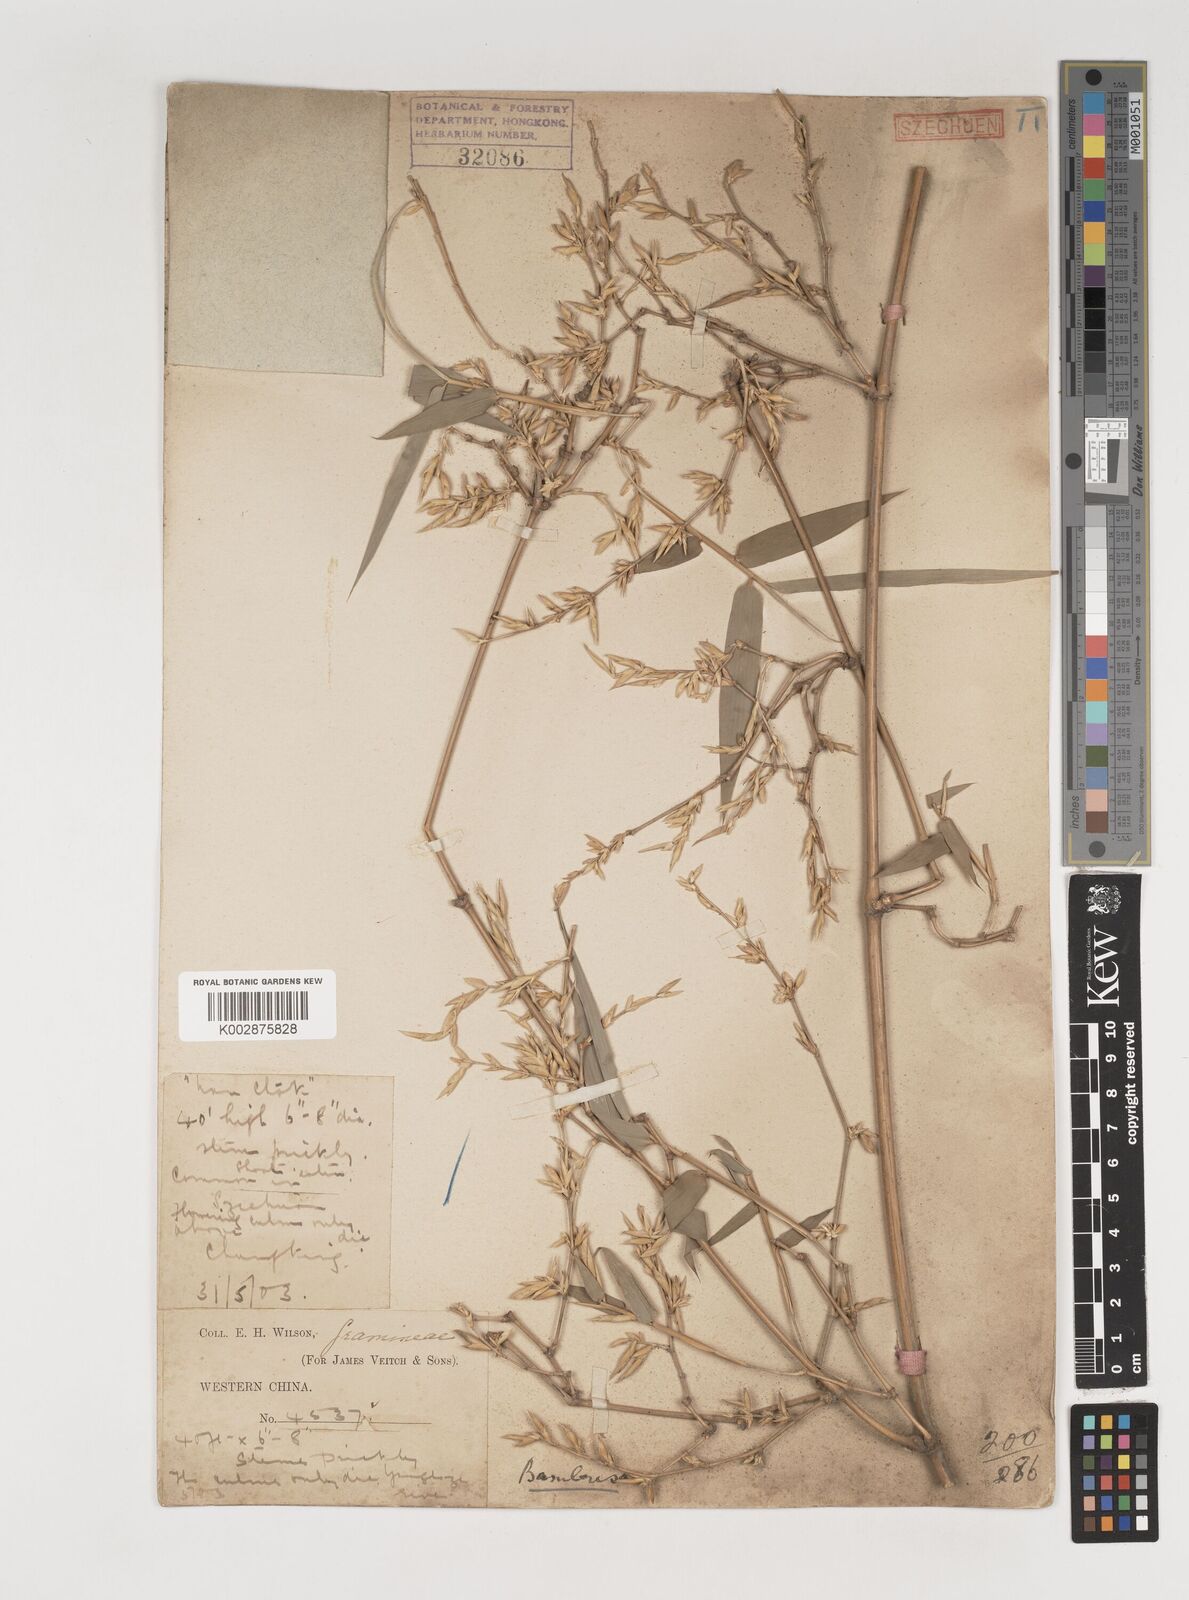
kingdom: Plantae
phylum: Tracheophyta
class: Liliopsida
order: Poales
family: Poaceae
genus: Bambusa
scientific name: Bambusa bambos
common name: Indian thorny bamboo
